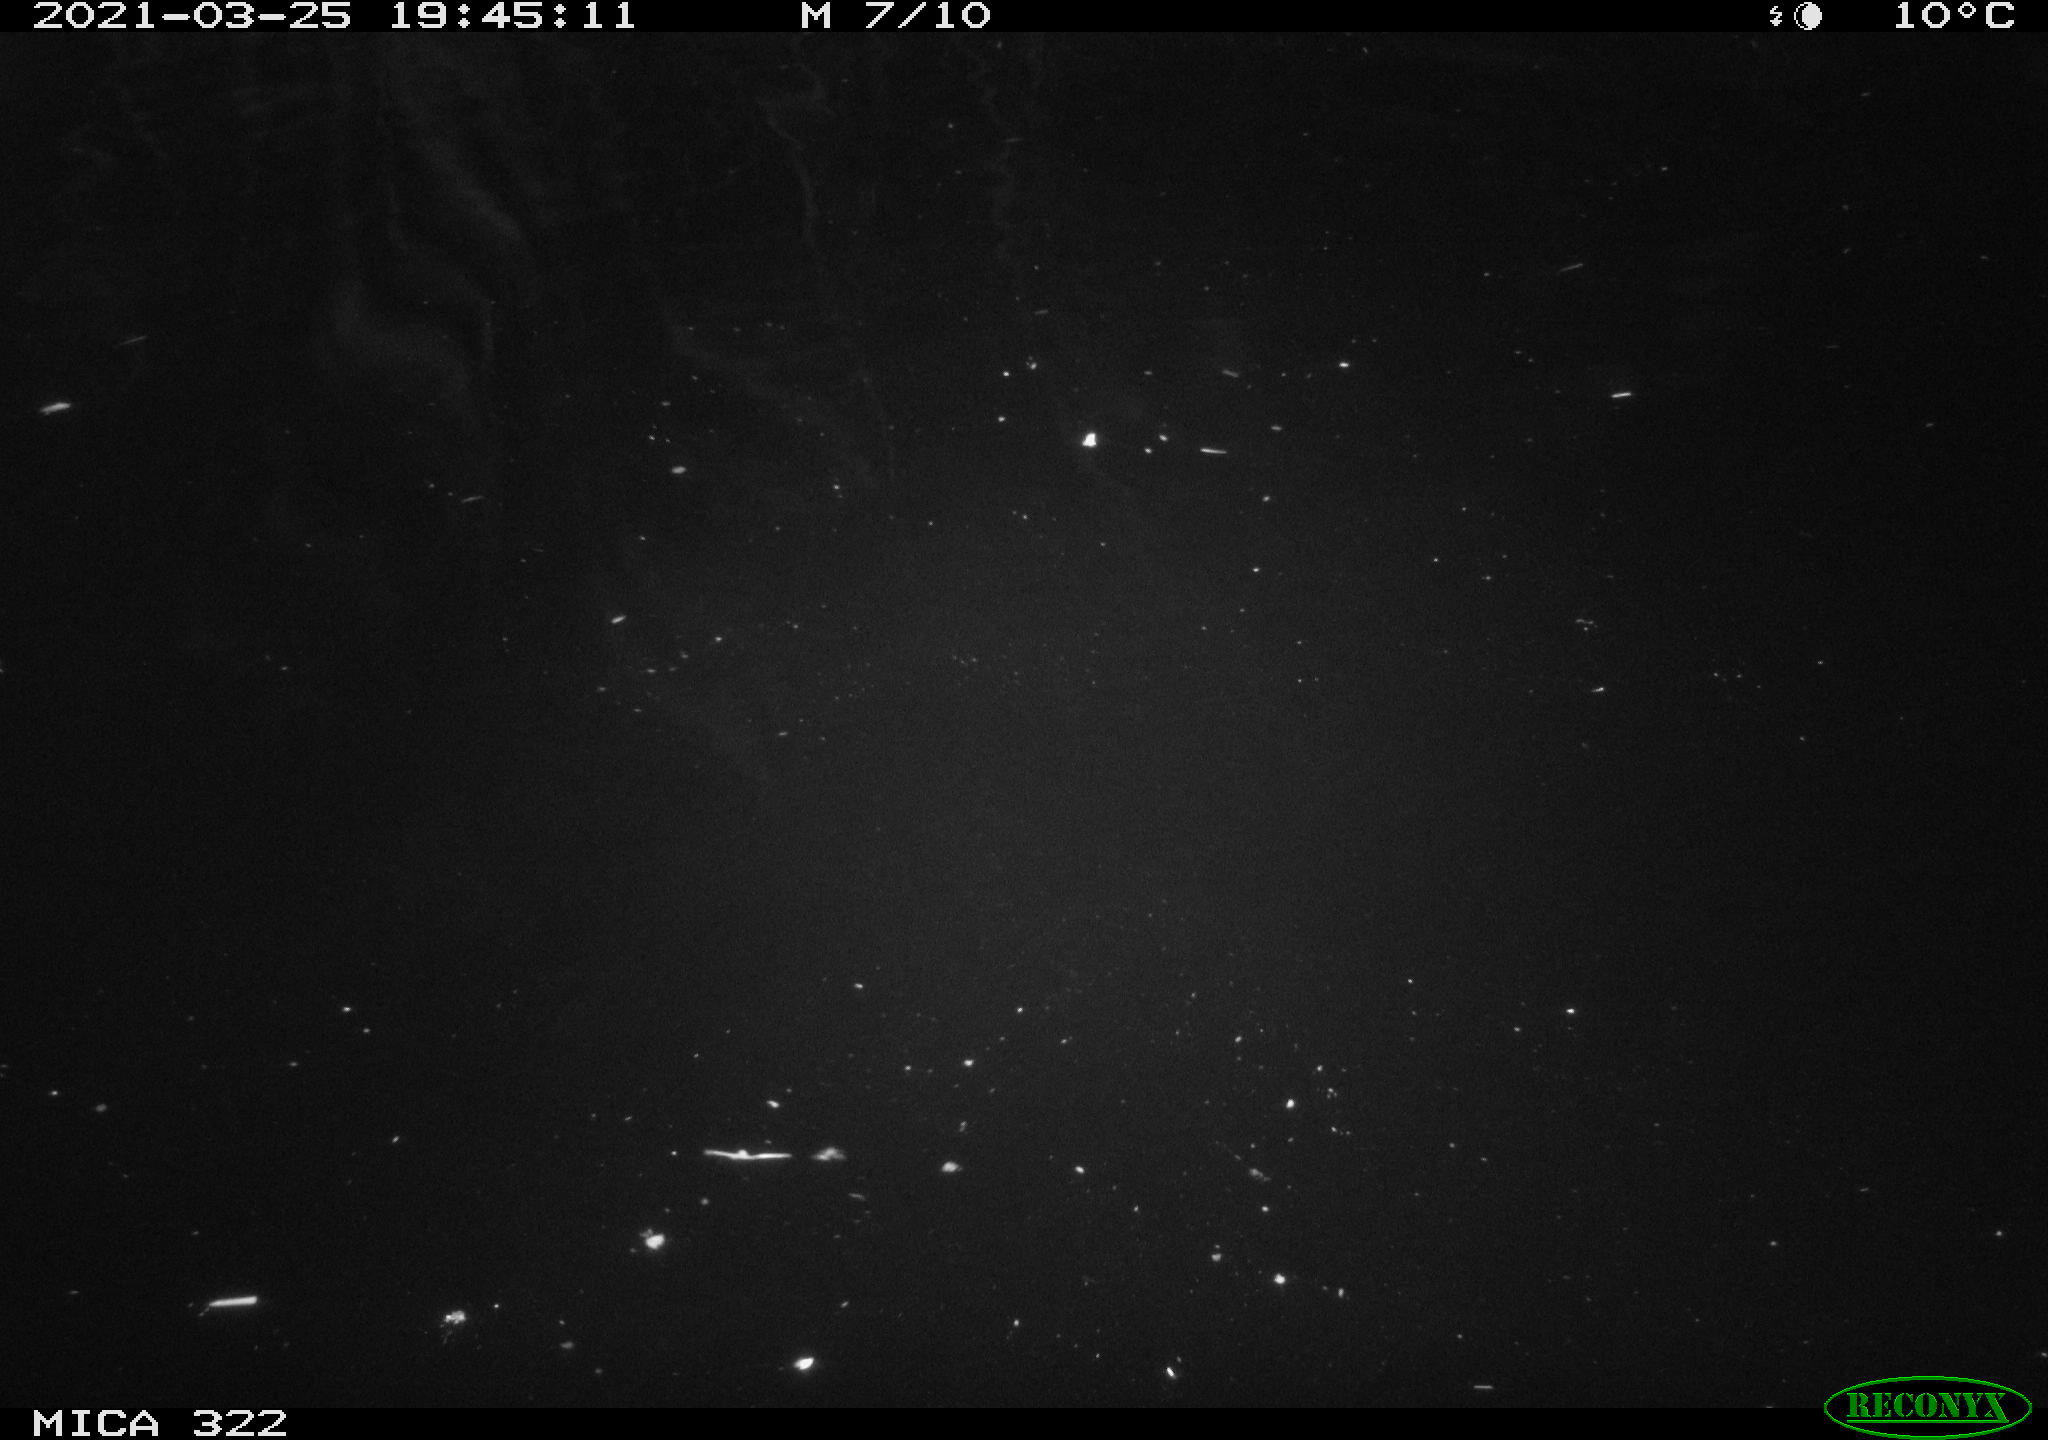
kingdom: Animalia
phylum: Chordata
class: Aves
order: Anseriformes
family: Anatidae
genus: Anas
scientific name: Anas platyrhynchos
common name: Mallard
